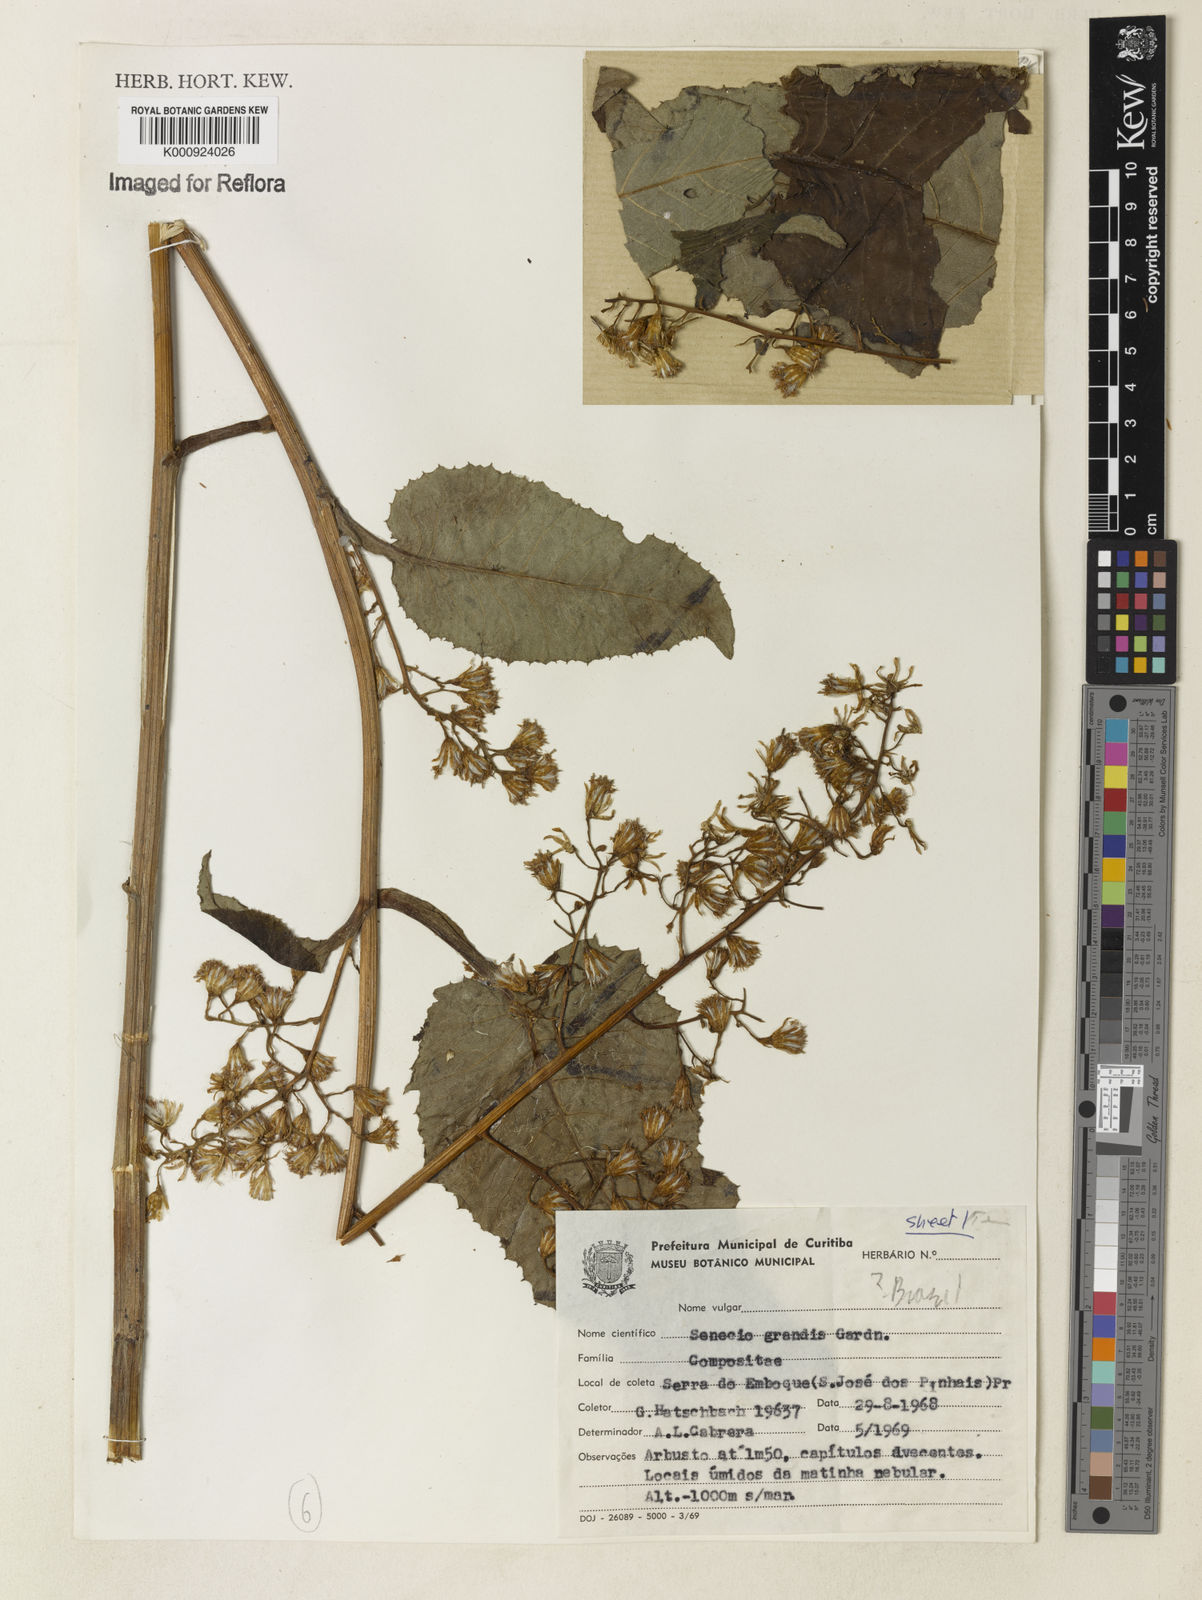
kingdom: Plantae
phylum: Tracheophyta
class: Magnoliopsida
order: Asterales
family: Asteraceae
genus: Senecio
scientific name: Senecio grandis
